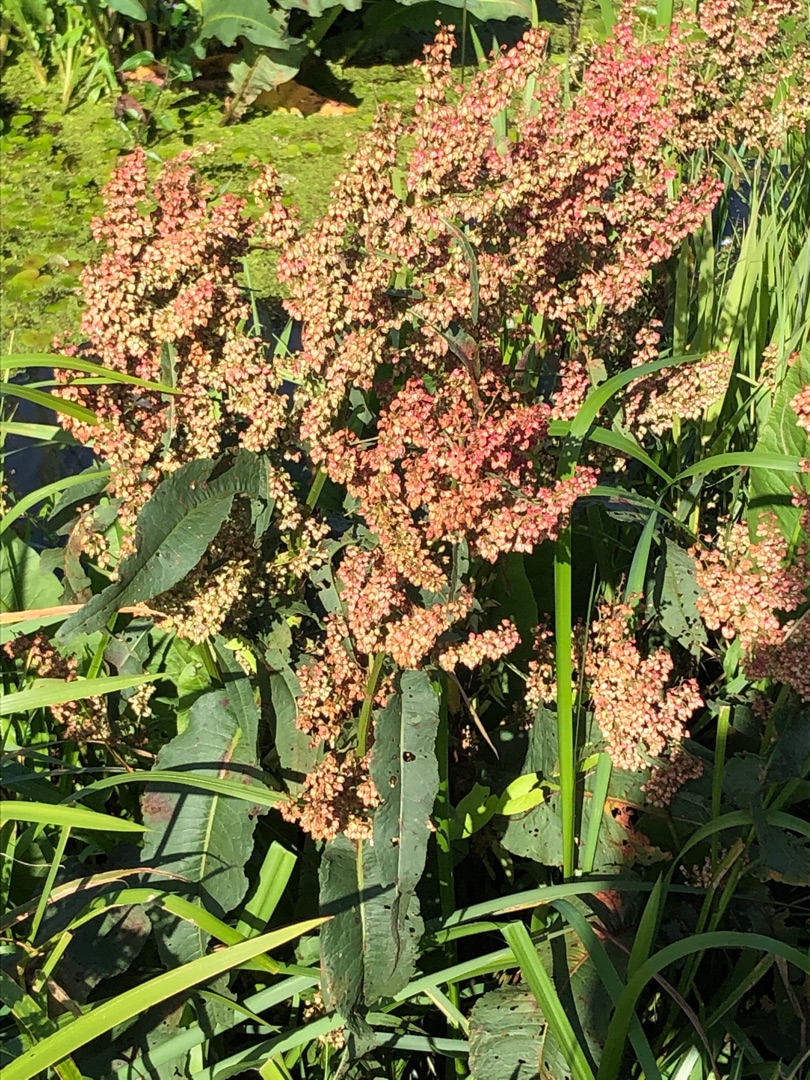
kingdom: Plantae
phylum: Tracheophyta
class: Magnoliopsida
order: Caryophyllales
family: Polygonaceae
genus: Rumex
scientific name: Rumex hydrolapathum
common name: Vand-skræppe
